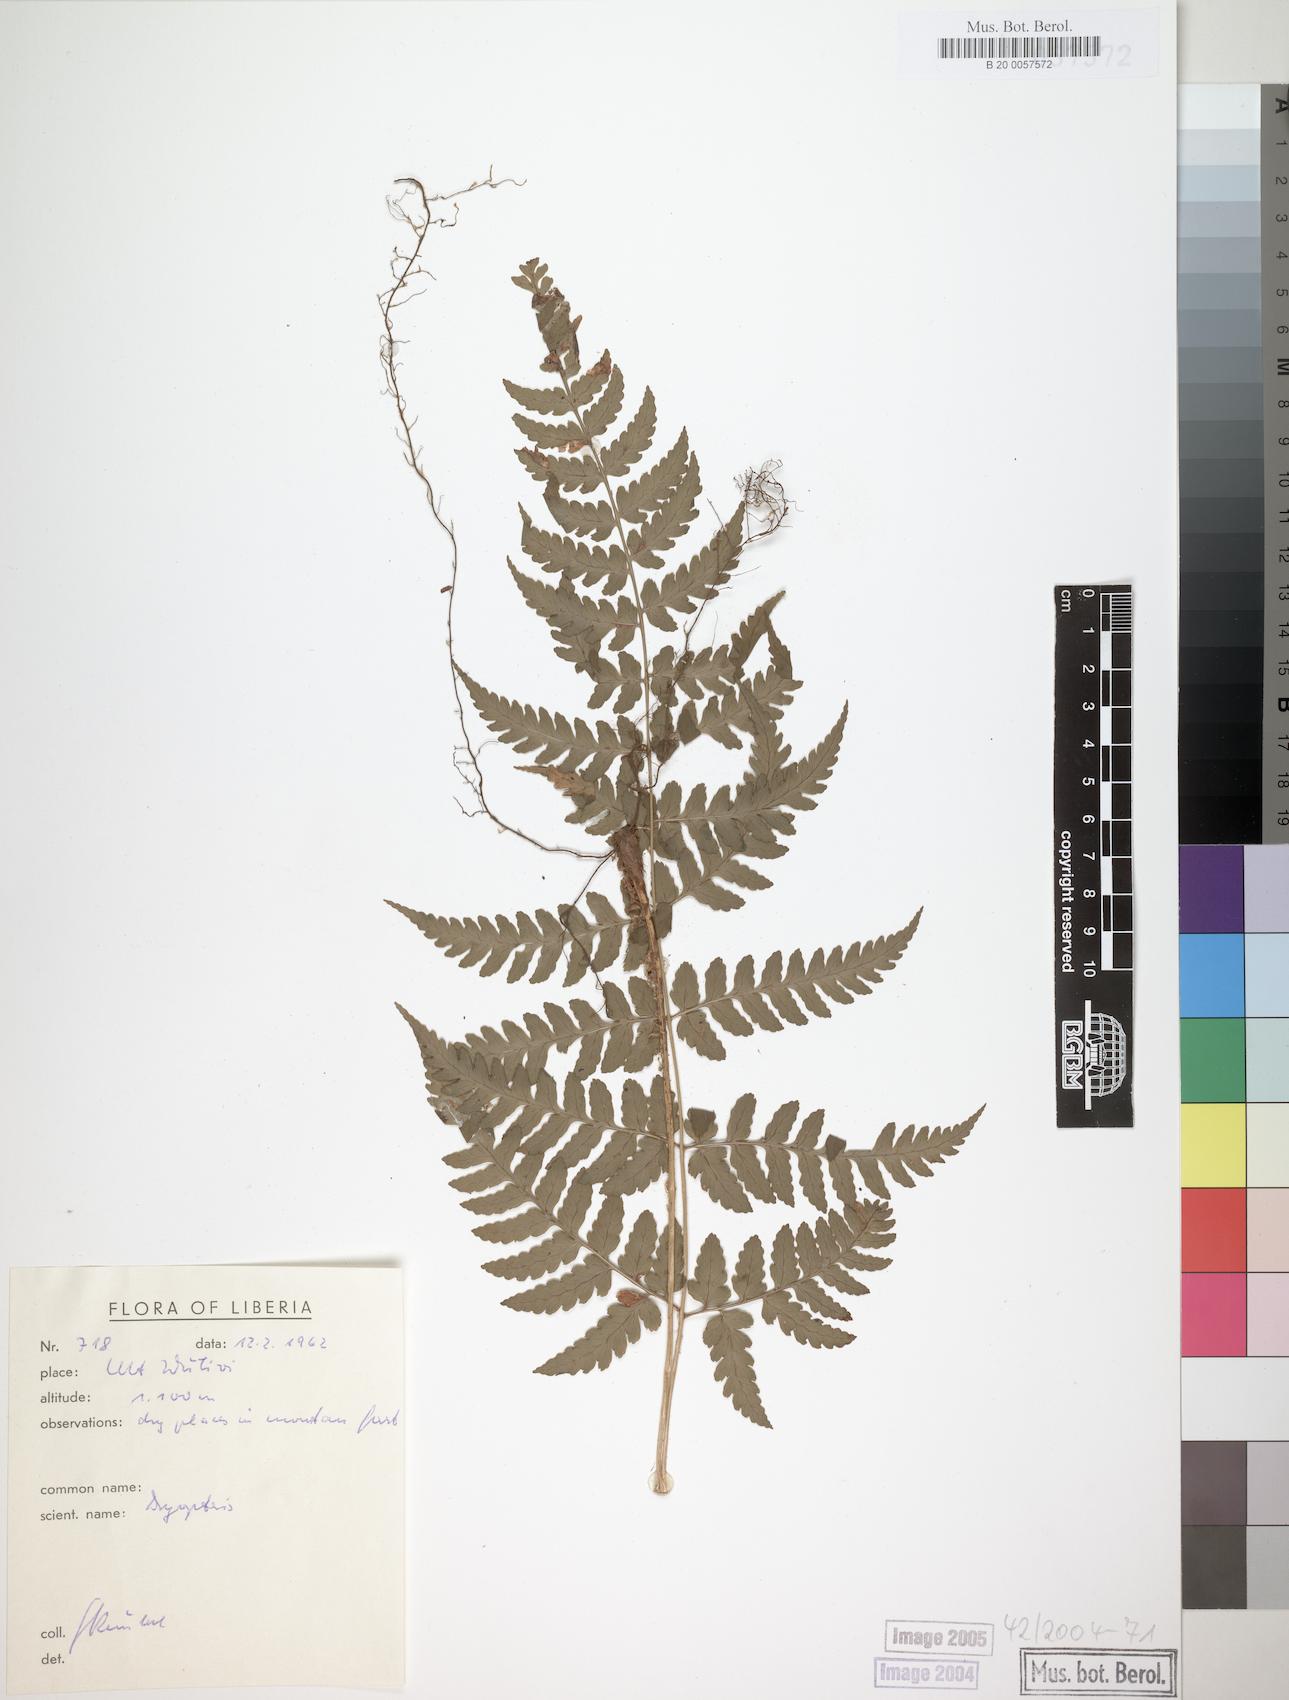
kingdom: Plantae
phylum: Tracheophyta
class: Polypodiopsida
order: Polypodiales
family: Dryopteridaceae
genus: Dryopteris
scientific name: Dryopteris manniana
